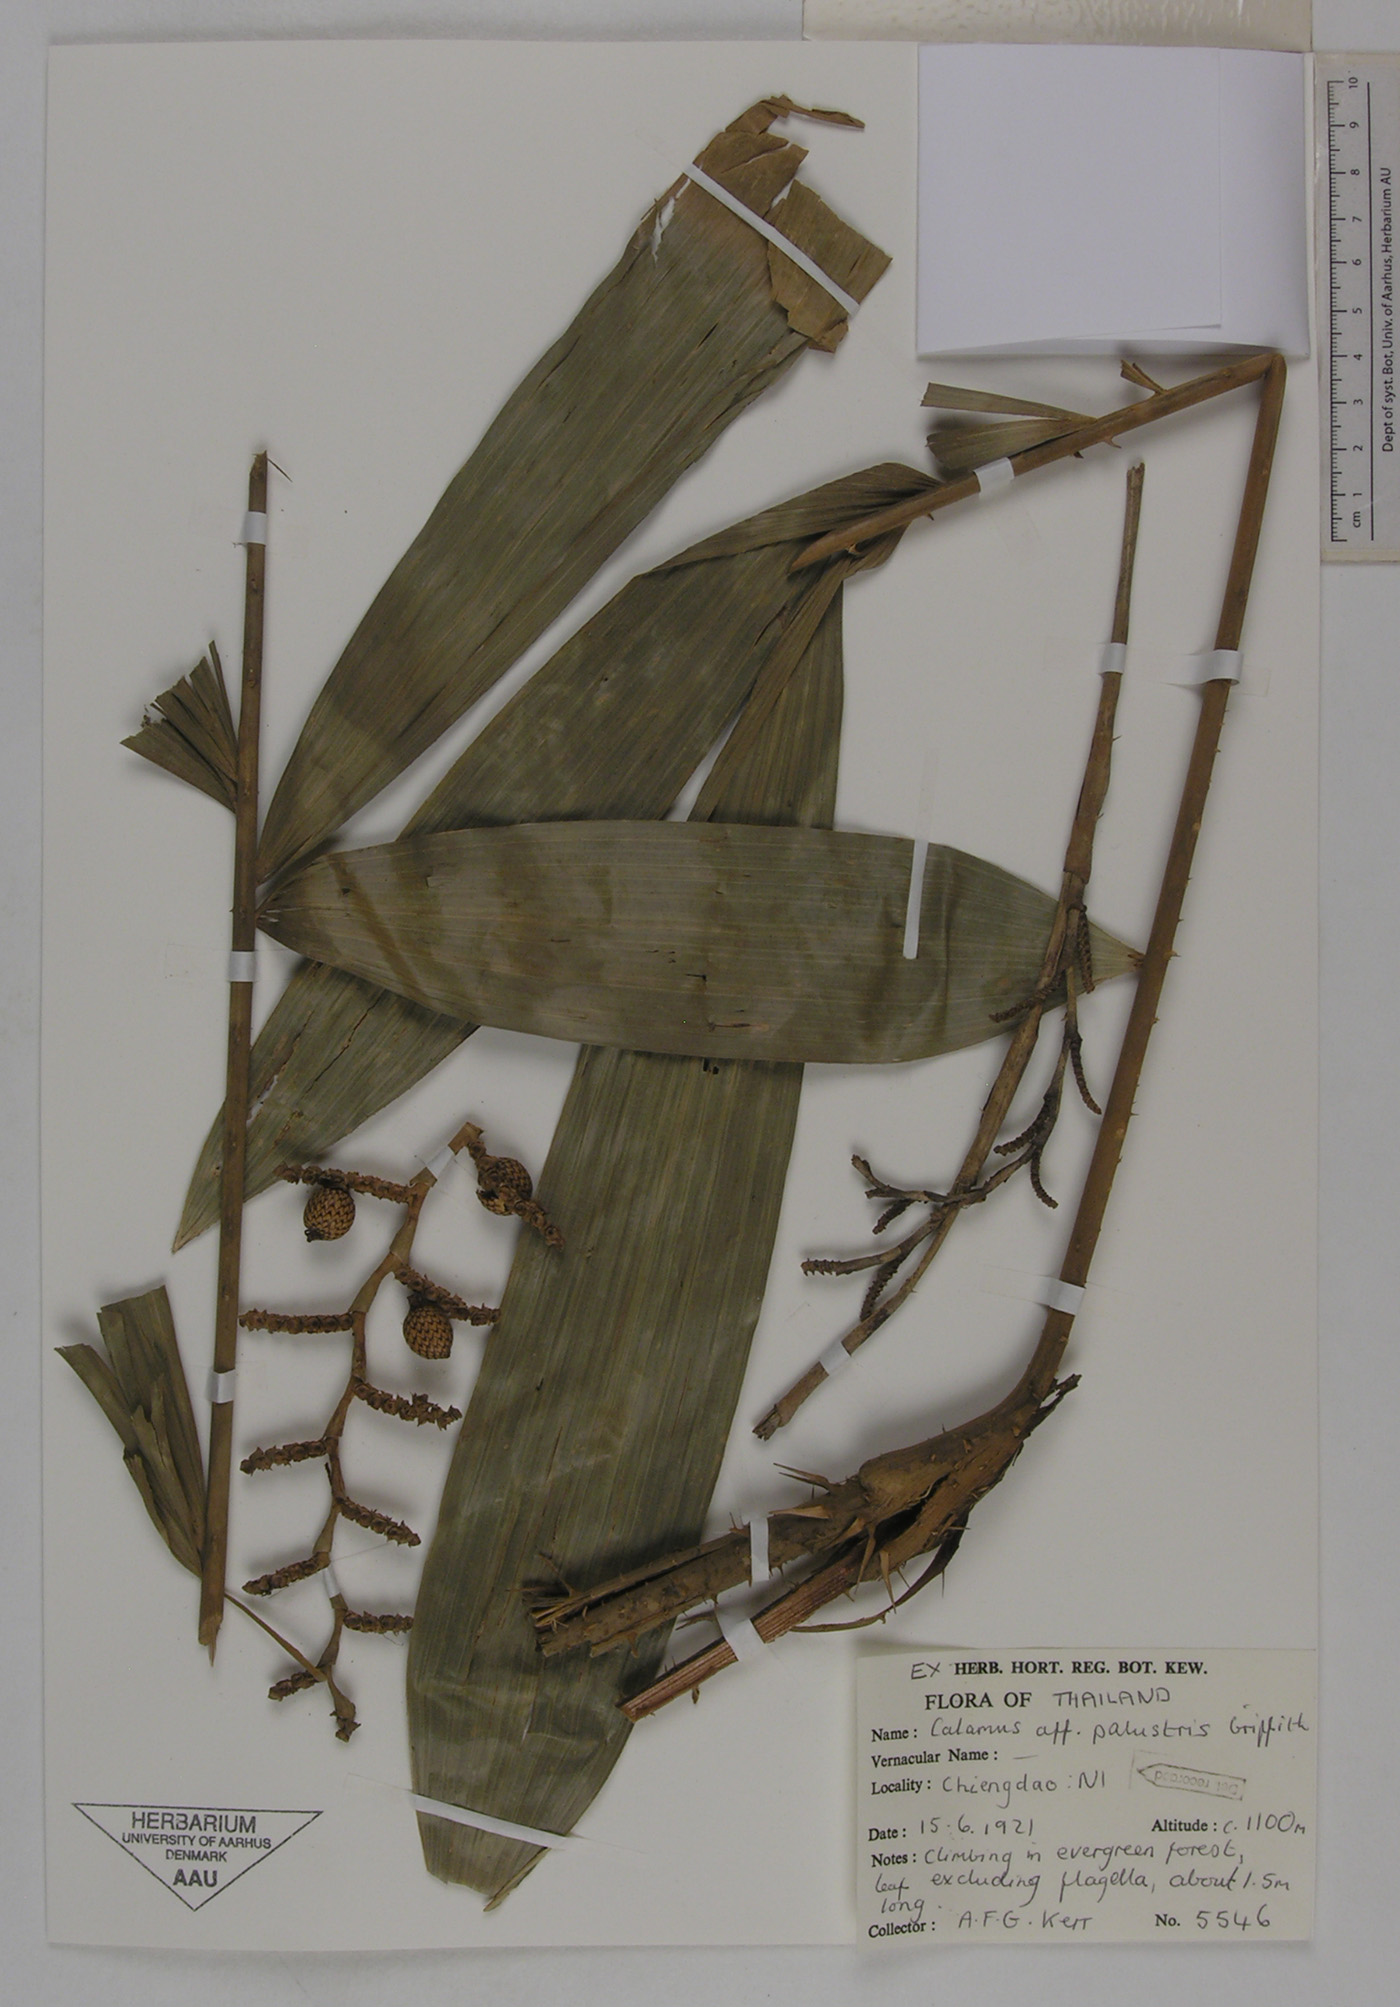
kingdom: Plantae
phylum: Tracheophyta
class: Liliopsida
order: Arecales
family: Arecaceae
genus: Calamus
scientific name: Calamus latifolius
